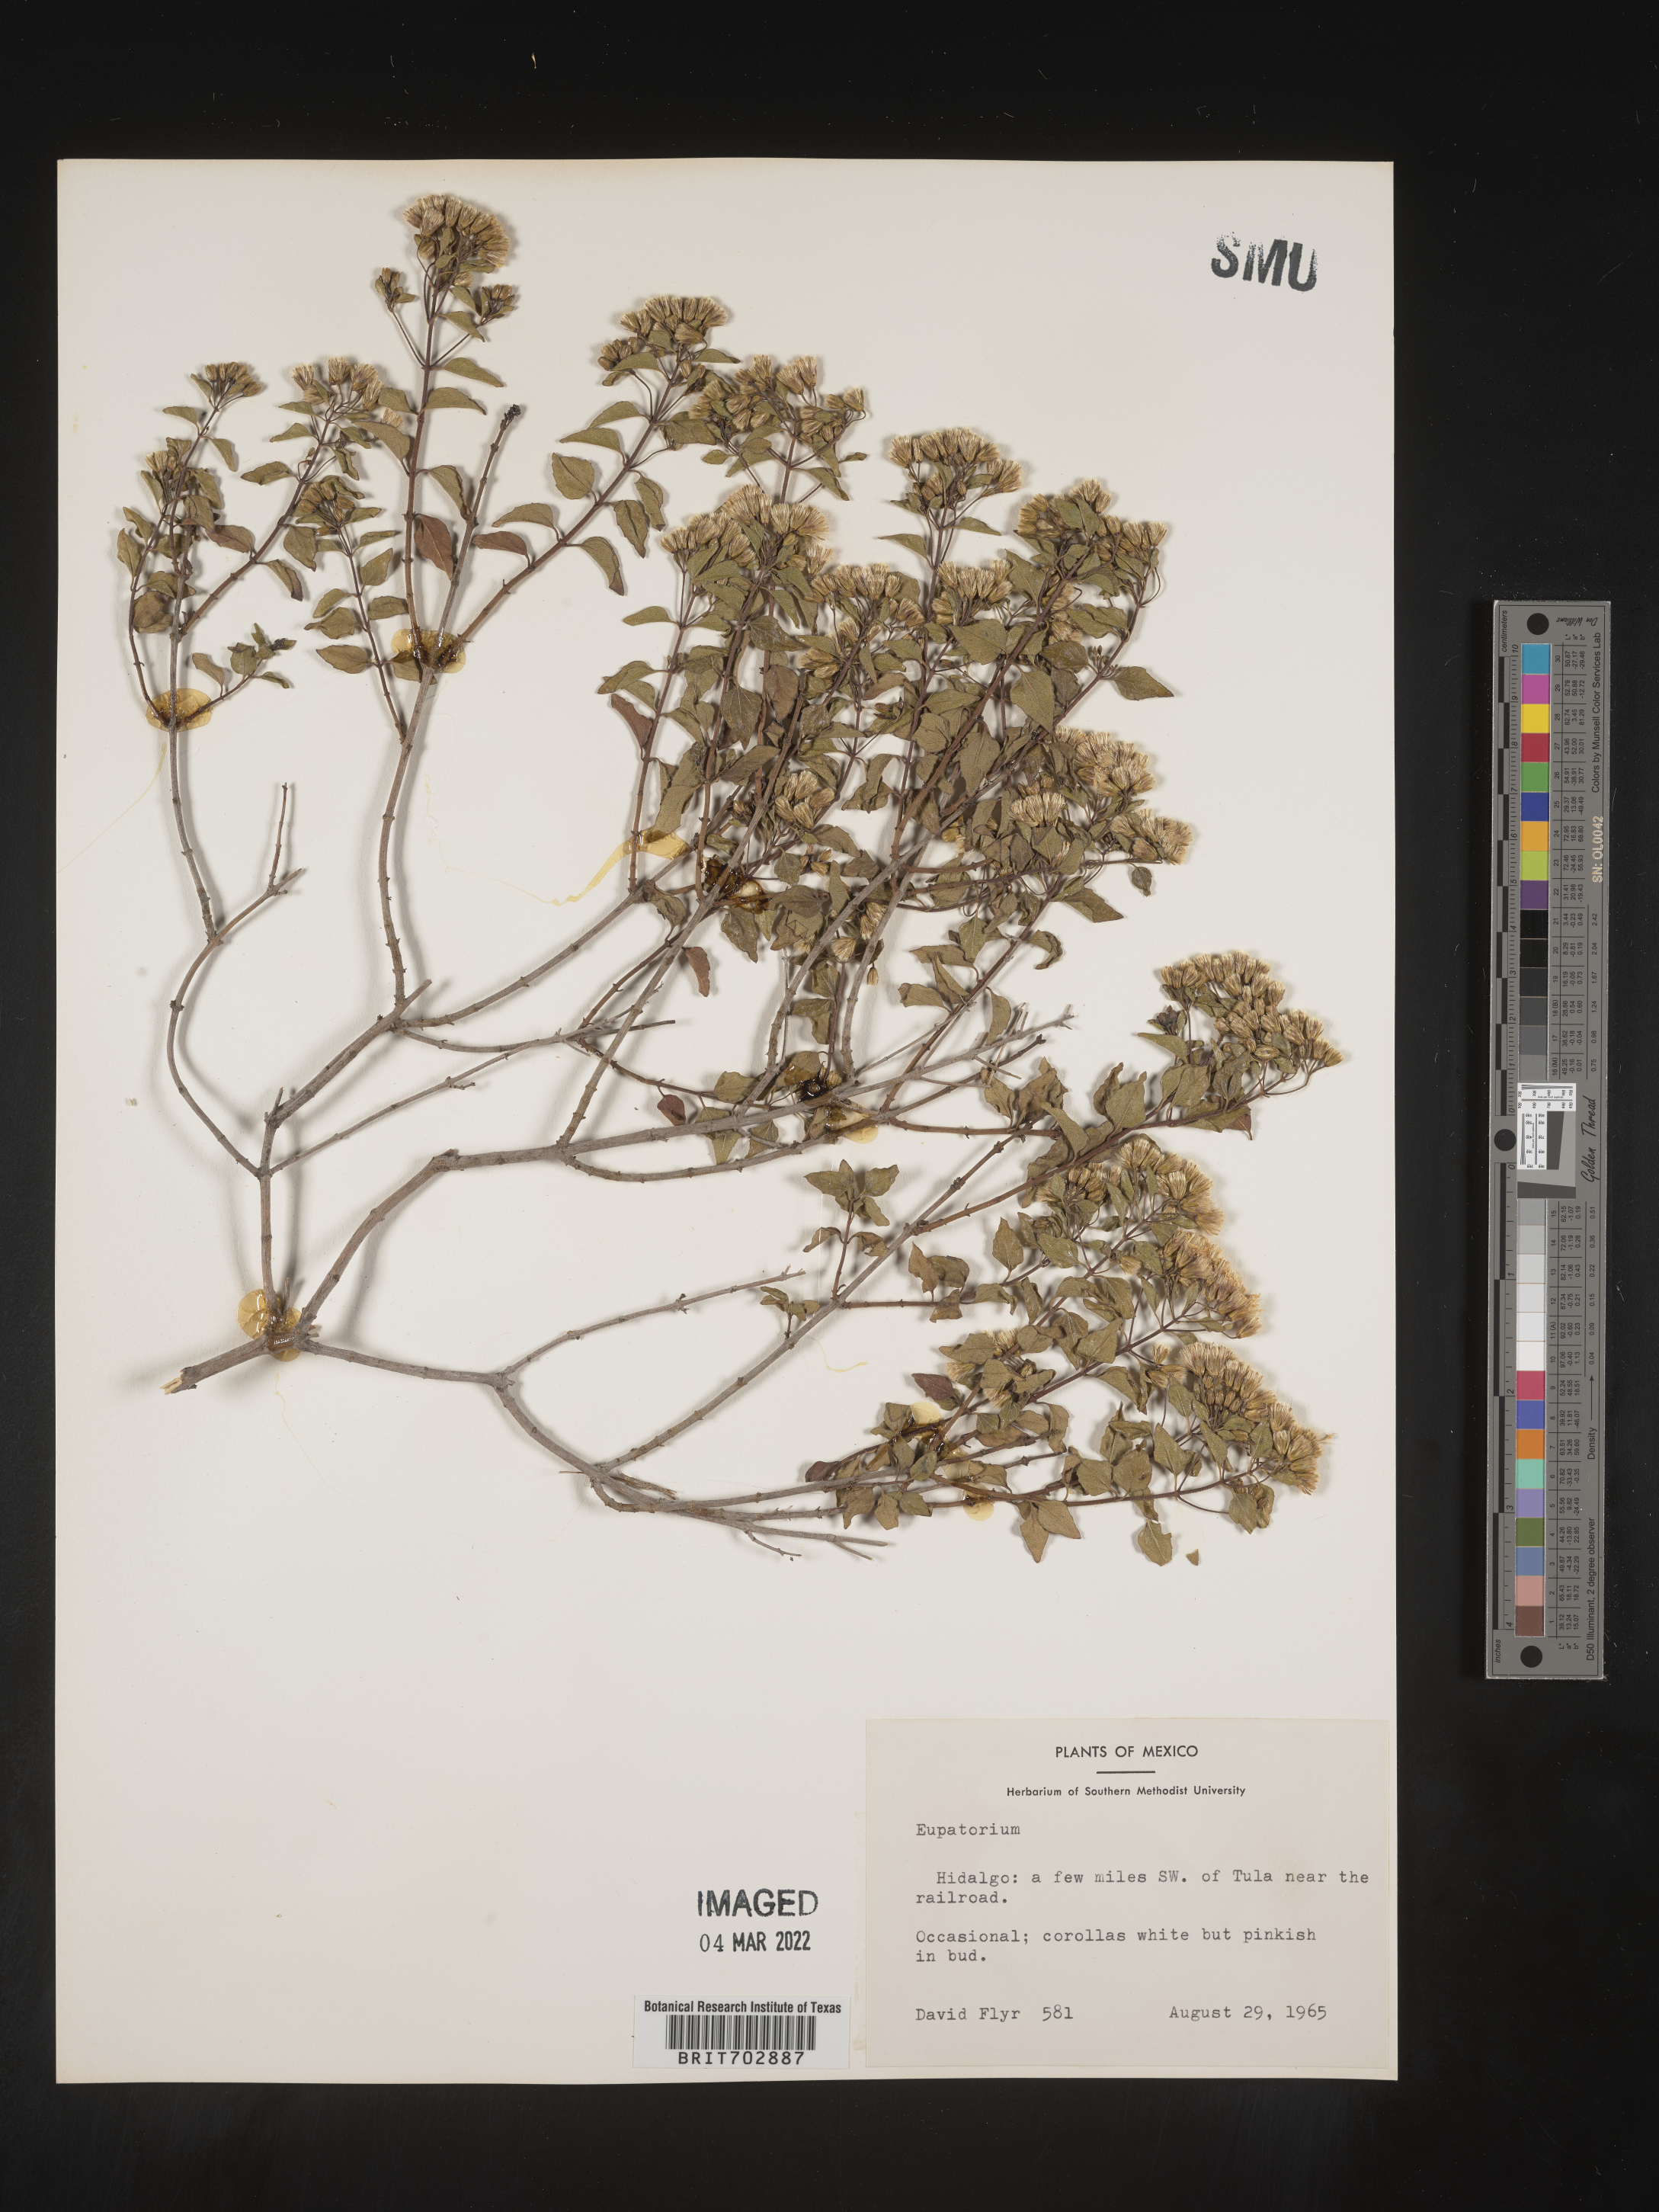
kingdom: Plantae
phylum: Tracheophyta
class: Magnoliopsida
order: Asterales
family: Asteraceae
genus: Eupatorium
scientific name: Eupatorium
